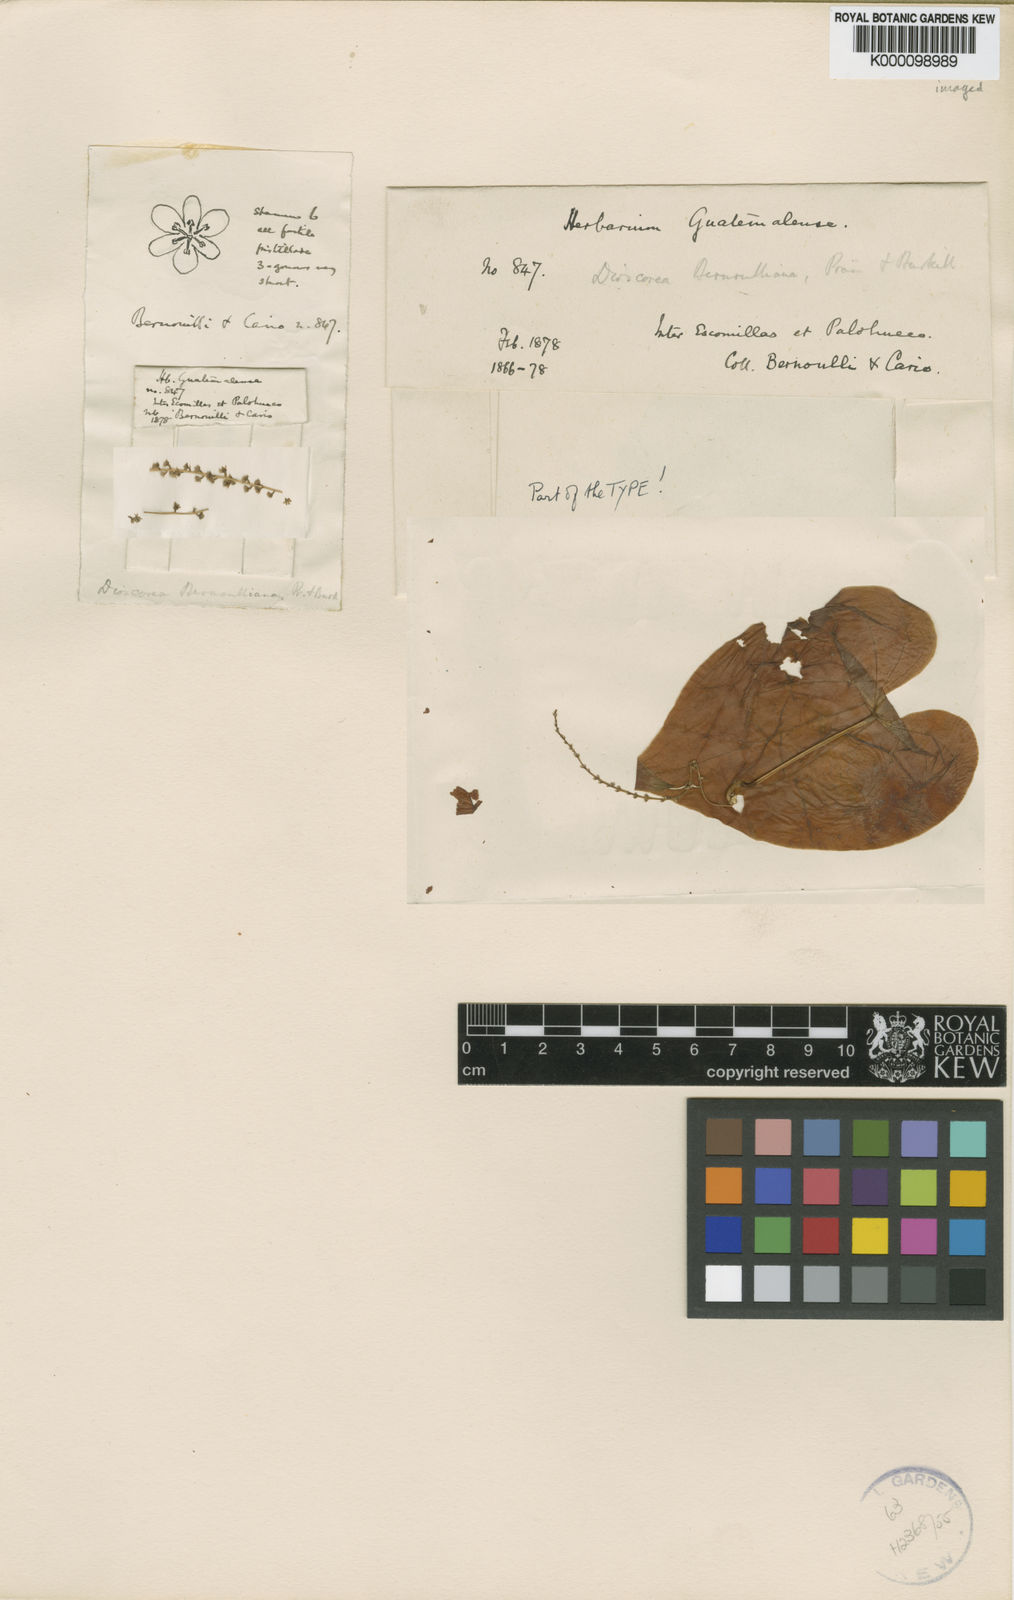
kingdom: Plantae
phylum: Tracheophyta
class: Liliopsida
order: Dioscoreales
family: Dioscoreaceae
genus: Dioscorea
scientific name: Dioscorea bernoulliana
